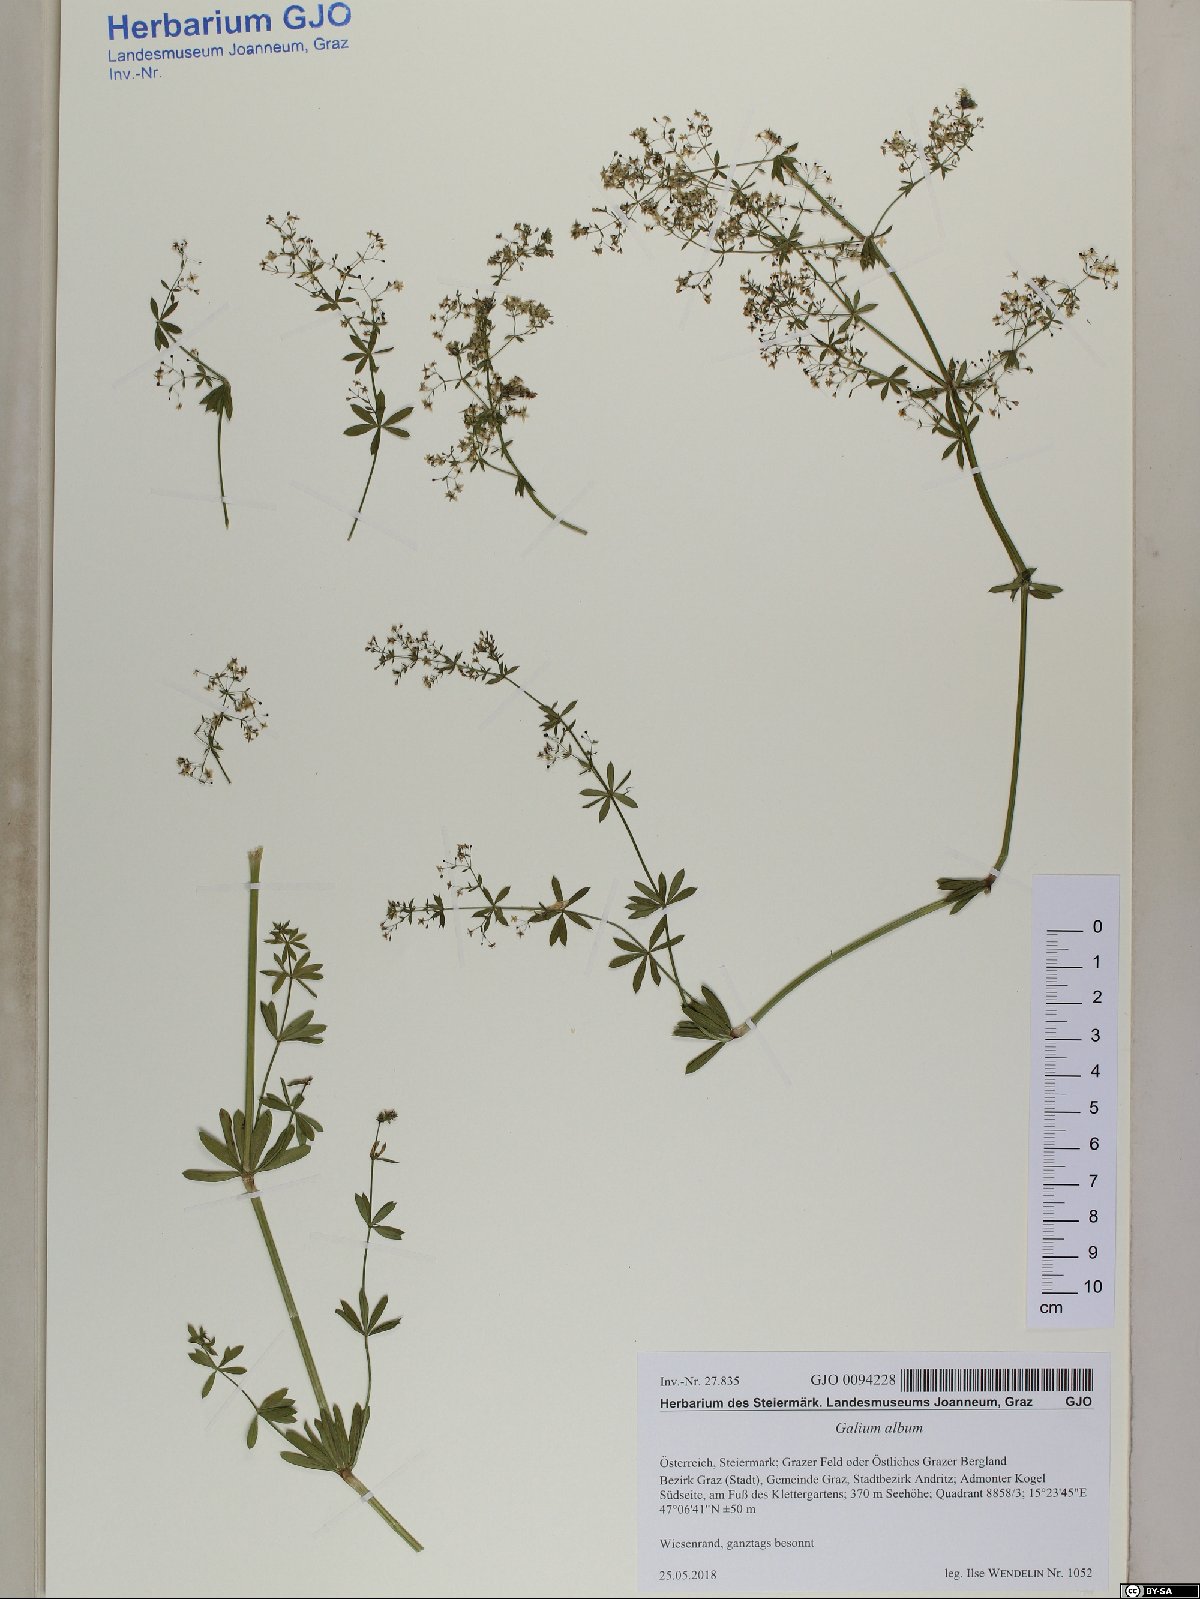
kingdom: Plantae
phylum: Tracheophyta
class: Magnoliopsida
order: Gentianales
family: Rubiaceae
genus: Galium
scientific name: Galium album
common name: White bedstraw
